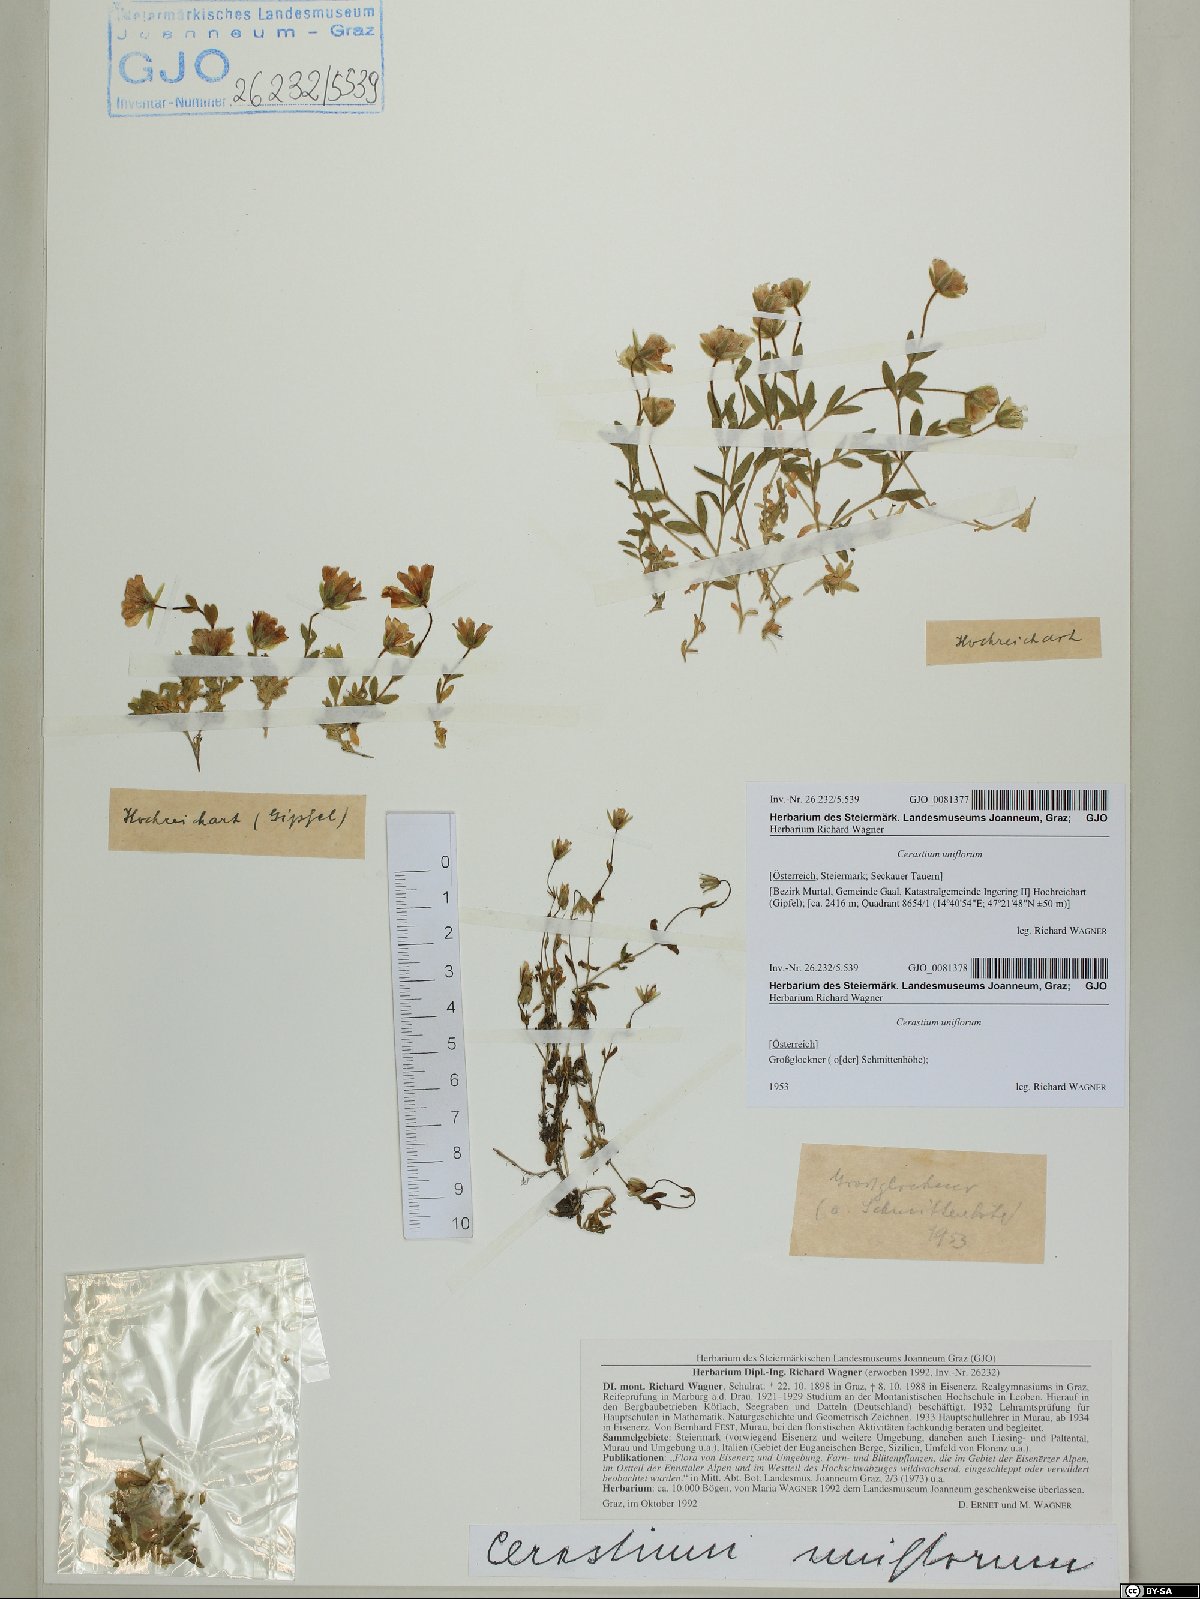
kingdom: Plantae
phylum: Tracheophyta
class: Magnoliopsida
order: Caryophyllales
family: Caryophyllaceae
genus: Cerastium
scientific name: Cerastium uniflorum
